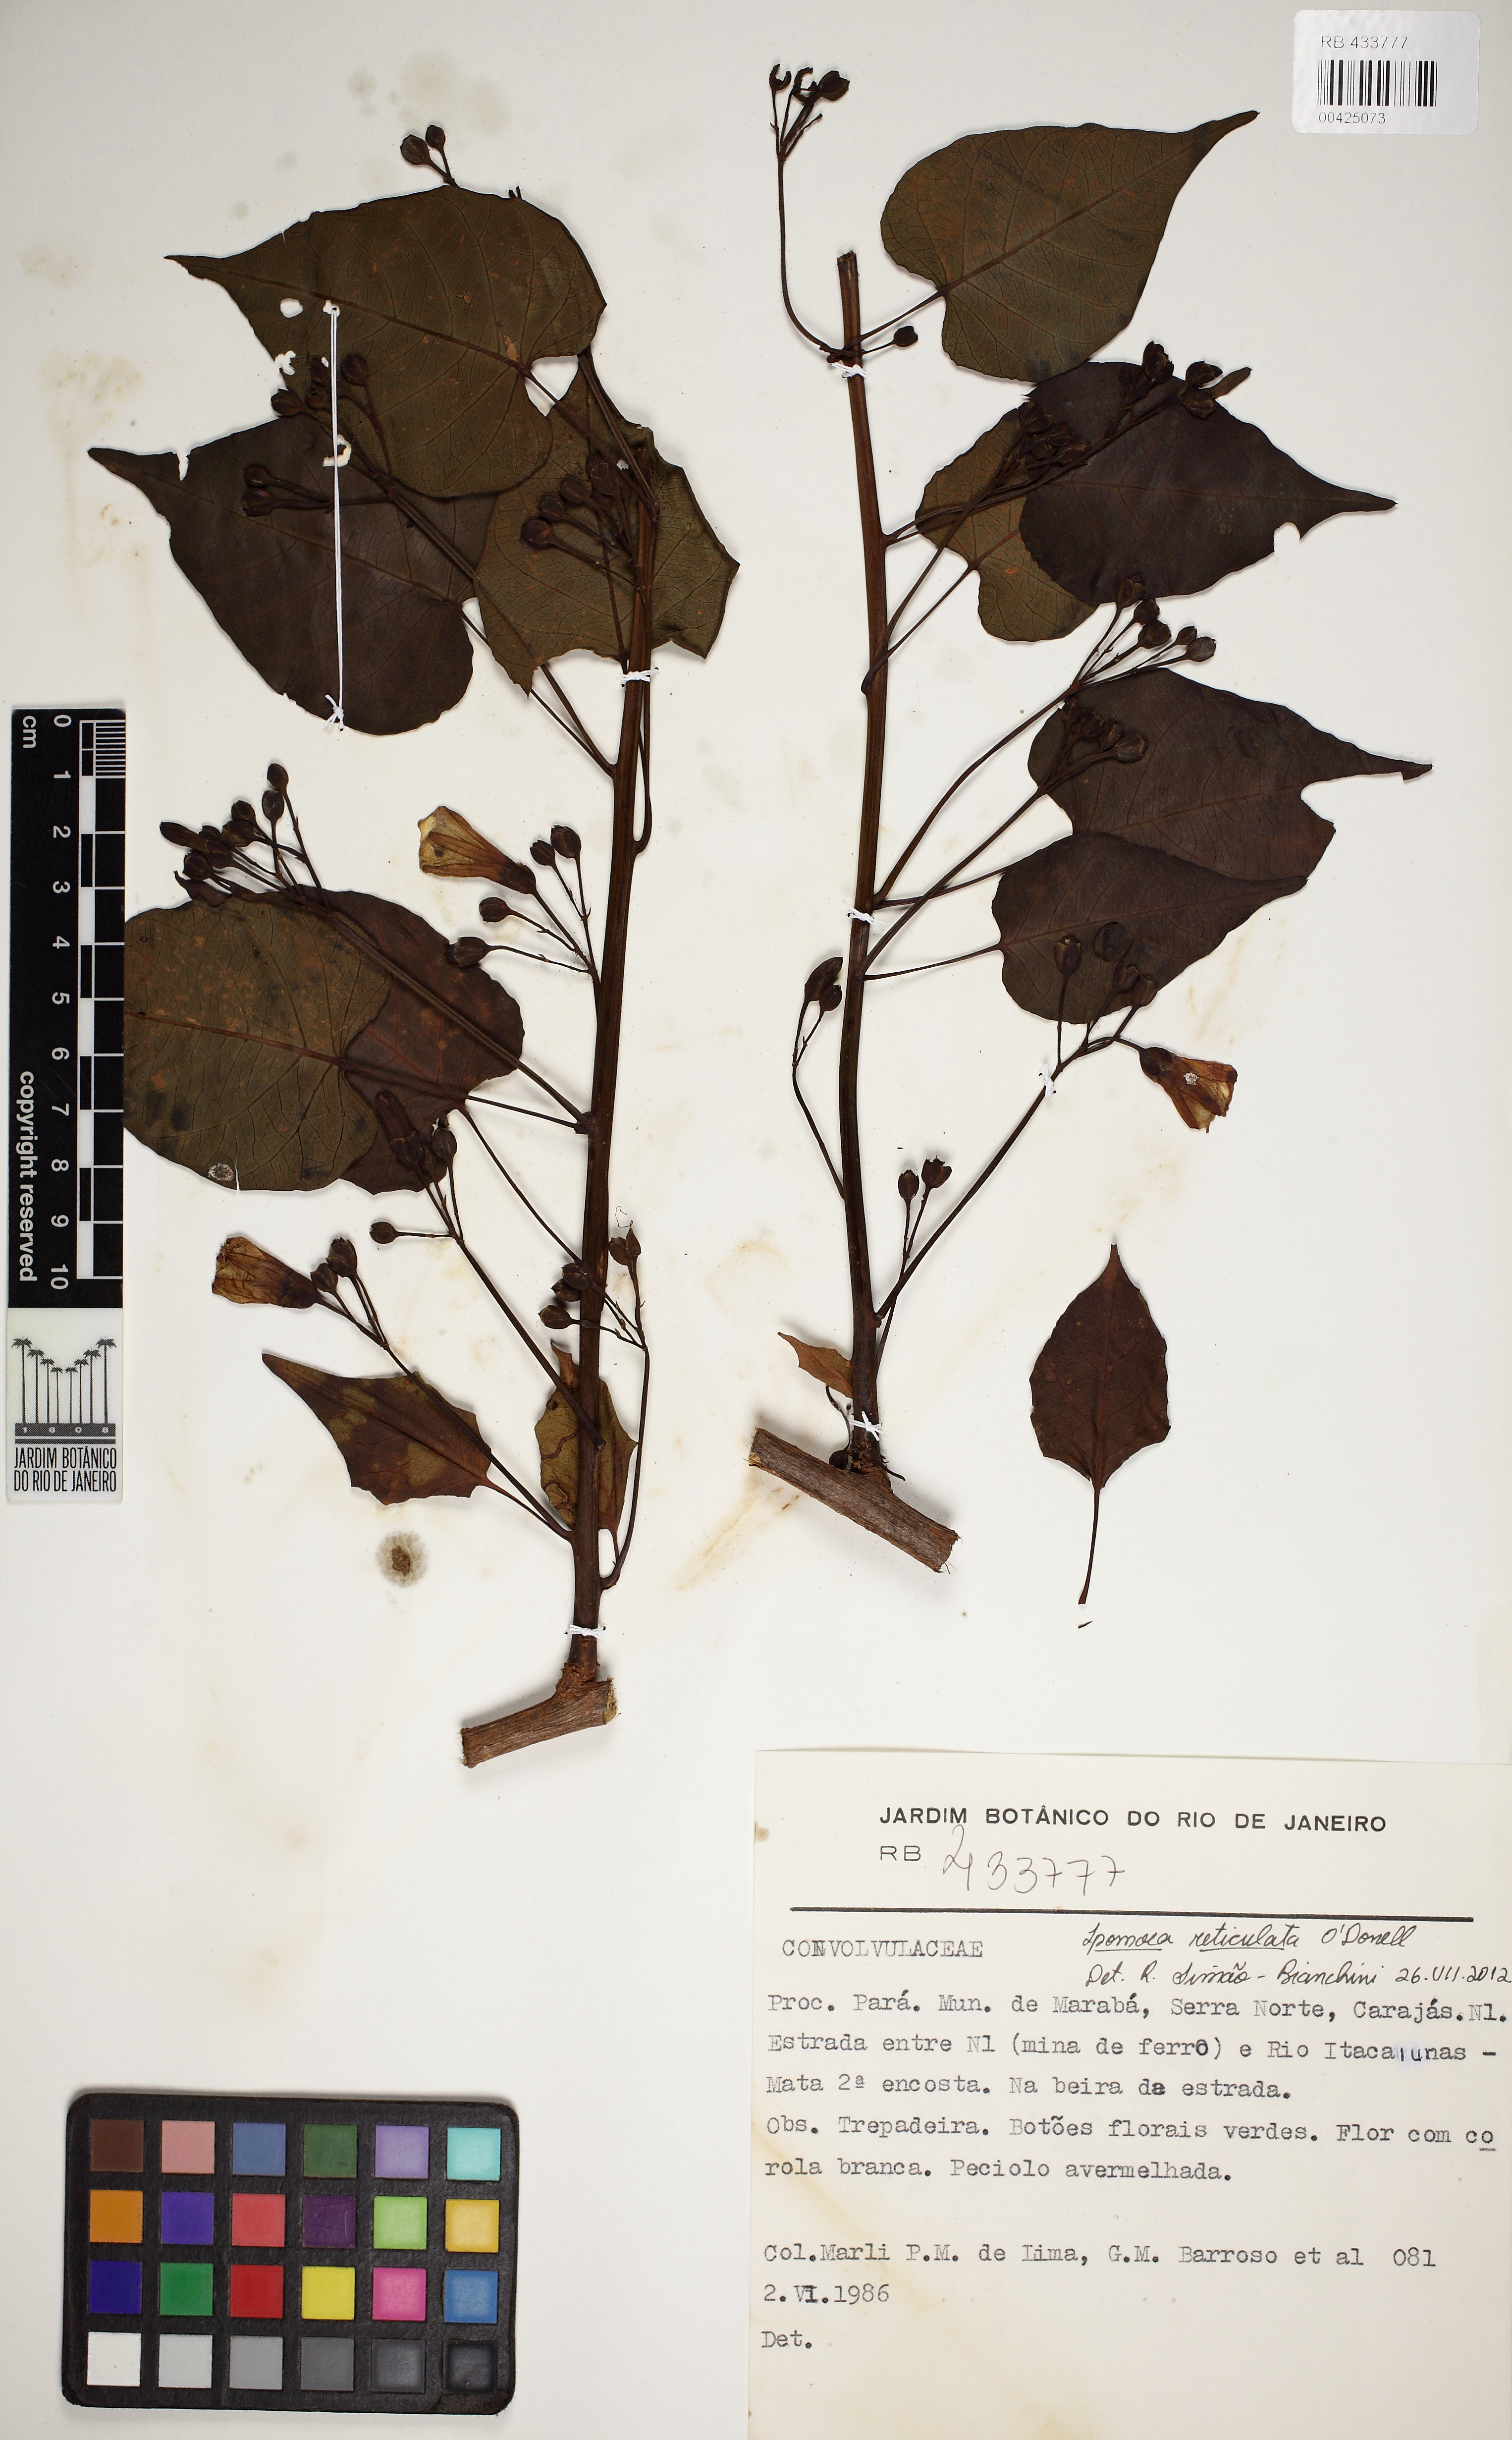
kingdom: Plantae
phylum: Tracheophyta
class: Magnoliopsida
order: Solanales
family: Convolvulaceae
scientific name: Convolvulaceae
